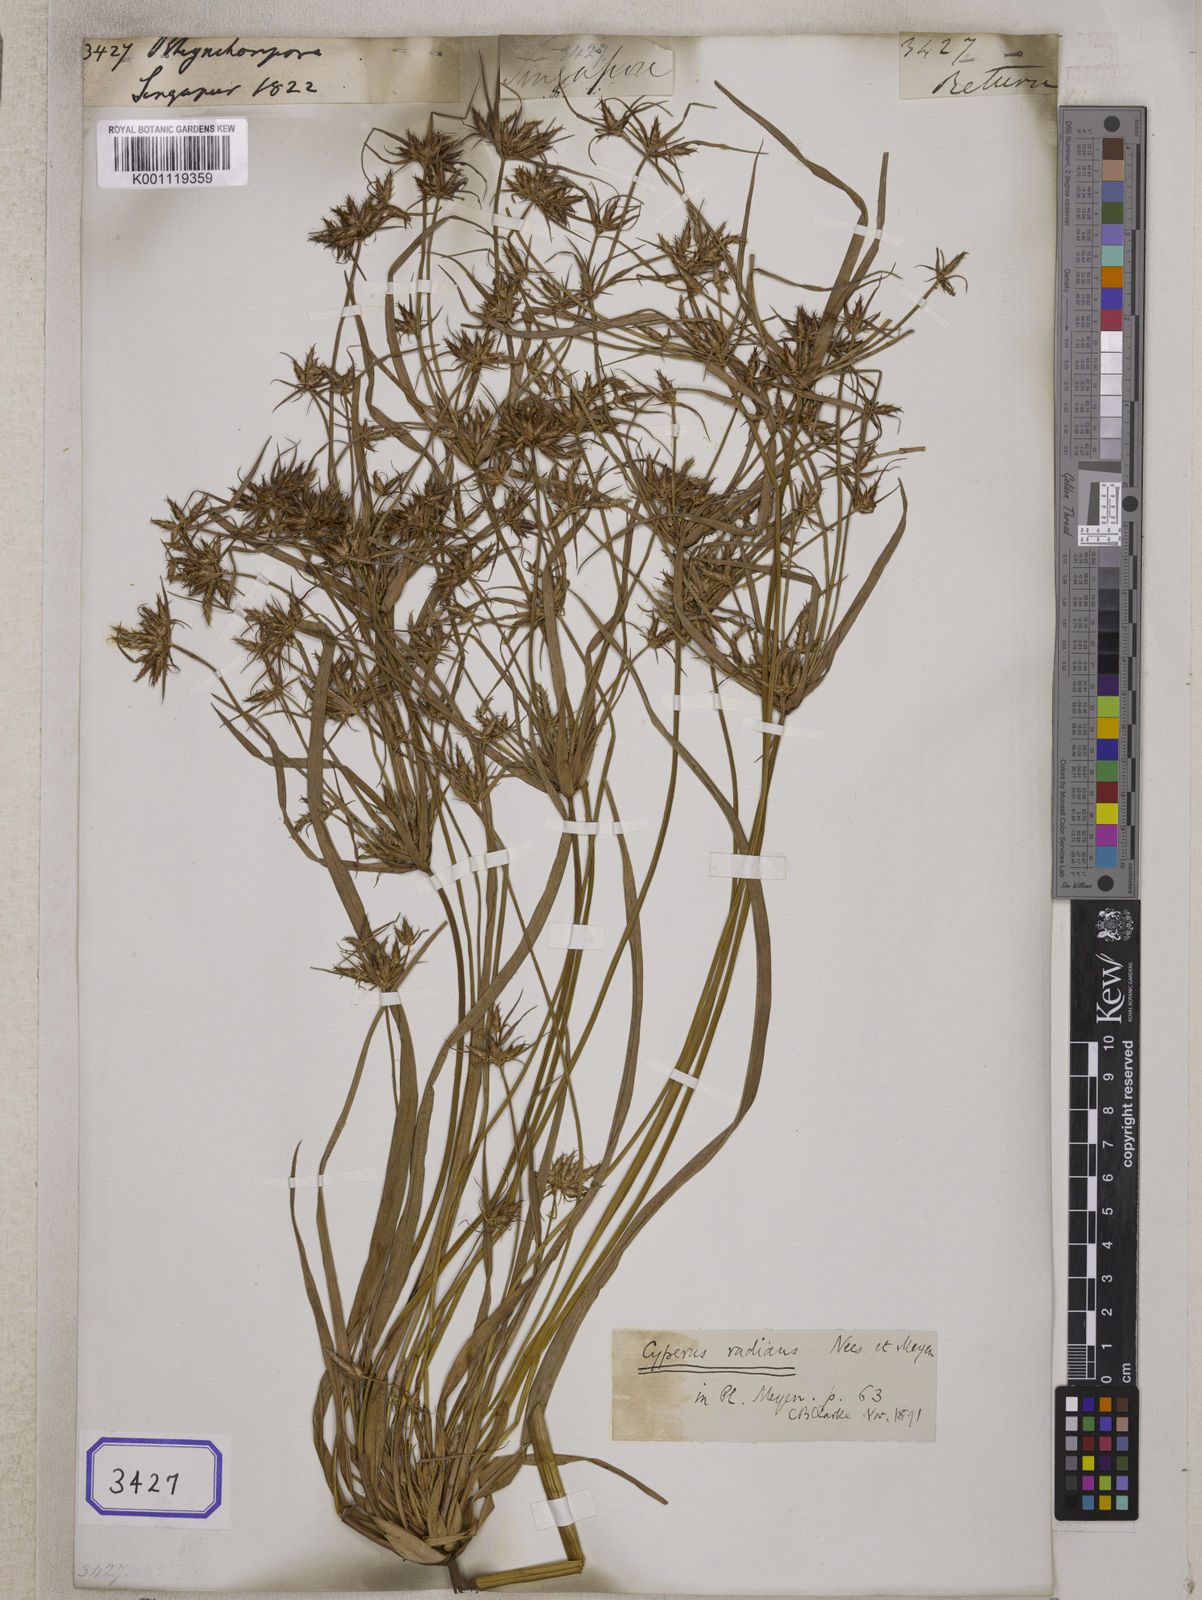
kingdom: Plantae
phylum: Tracheophyta
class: Liliopsida
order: Poales
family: Cyperaceae
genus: Rhynchospora
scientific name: Rhynchospora
